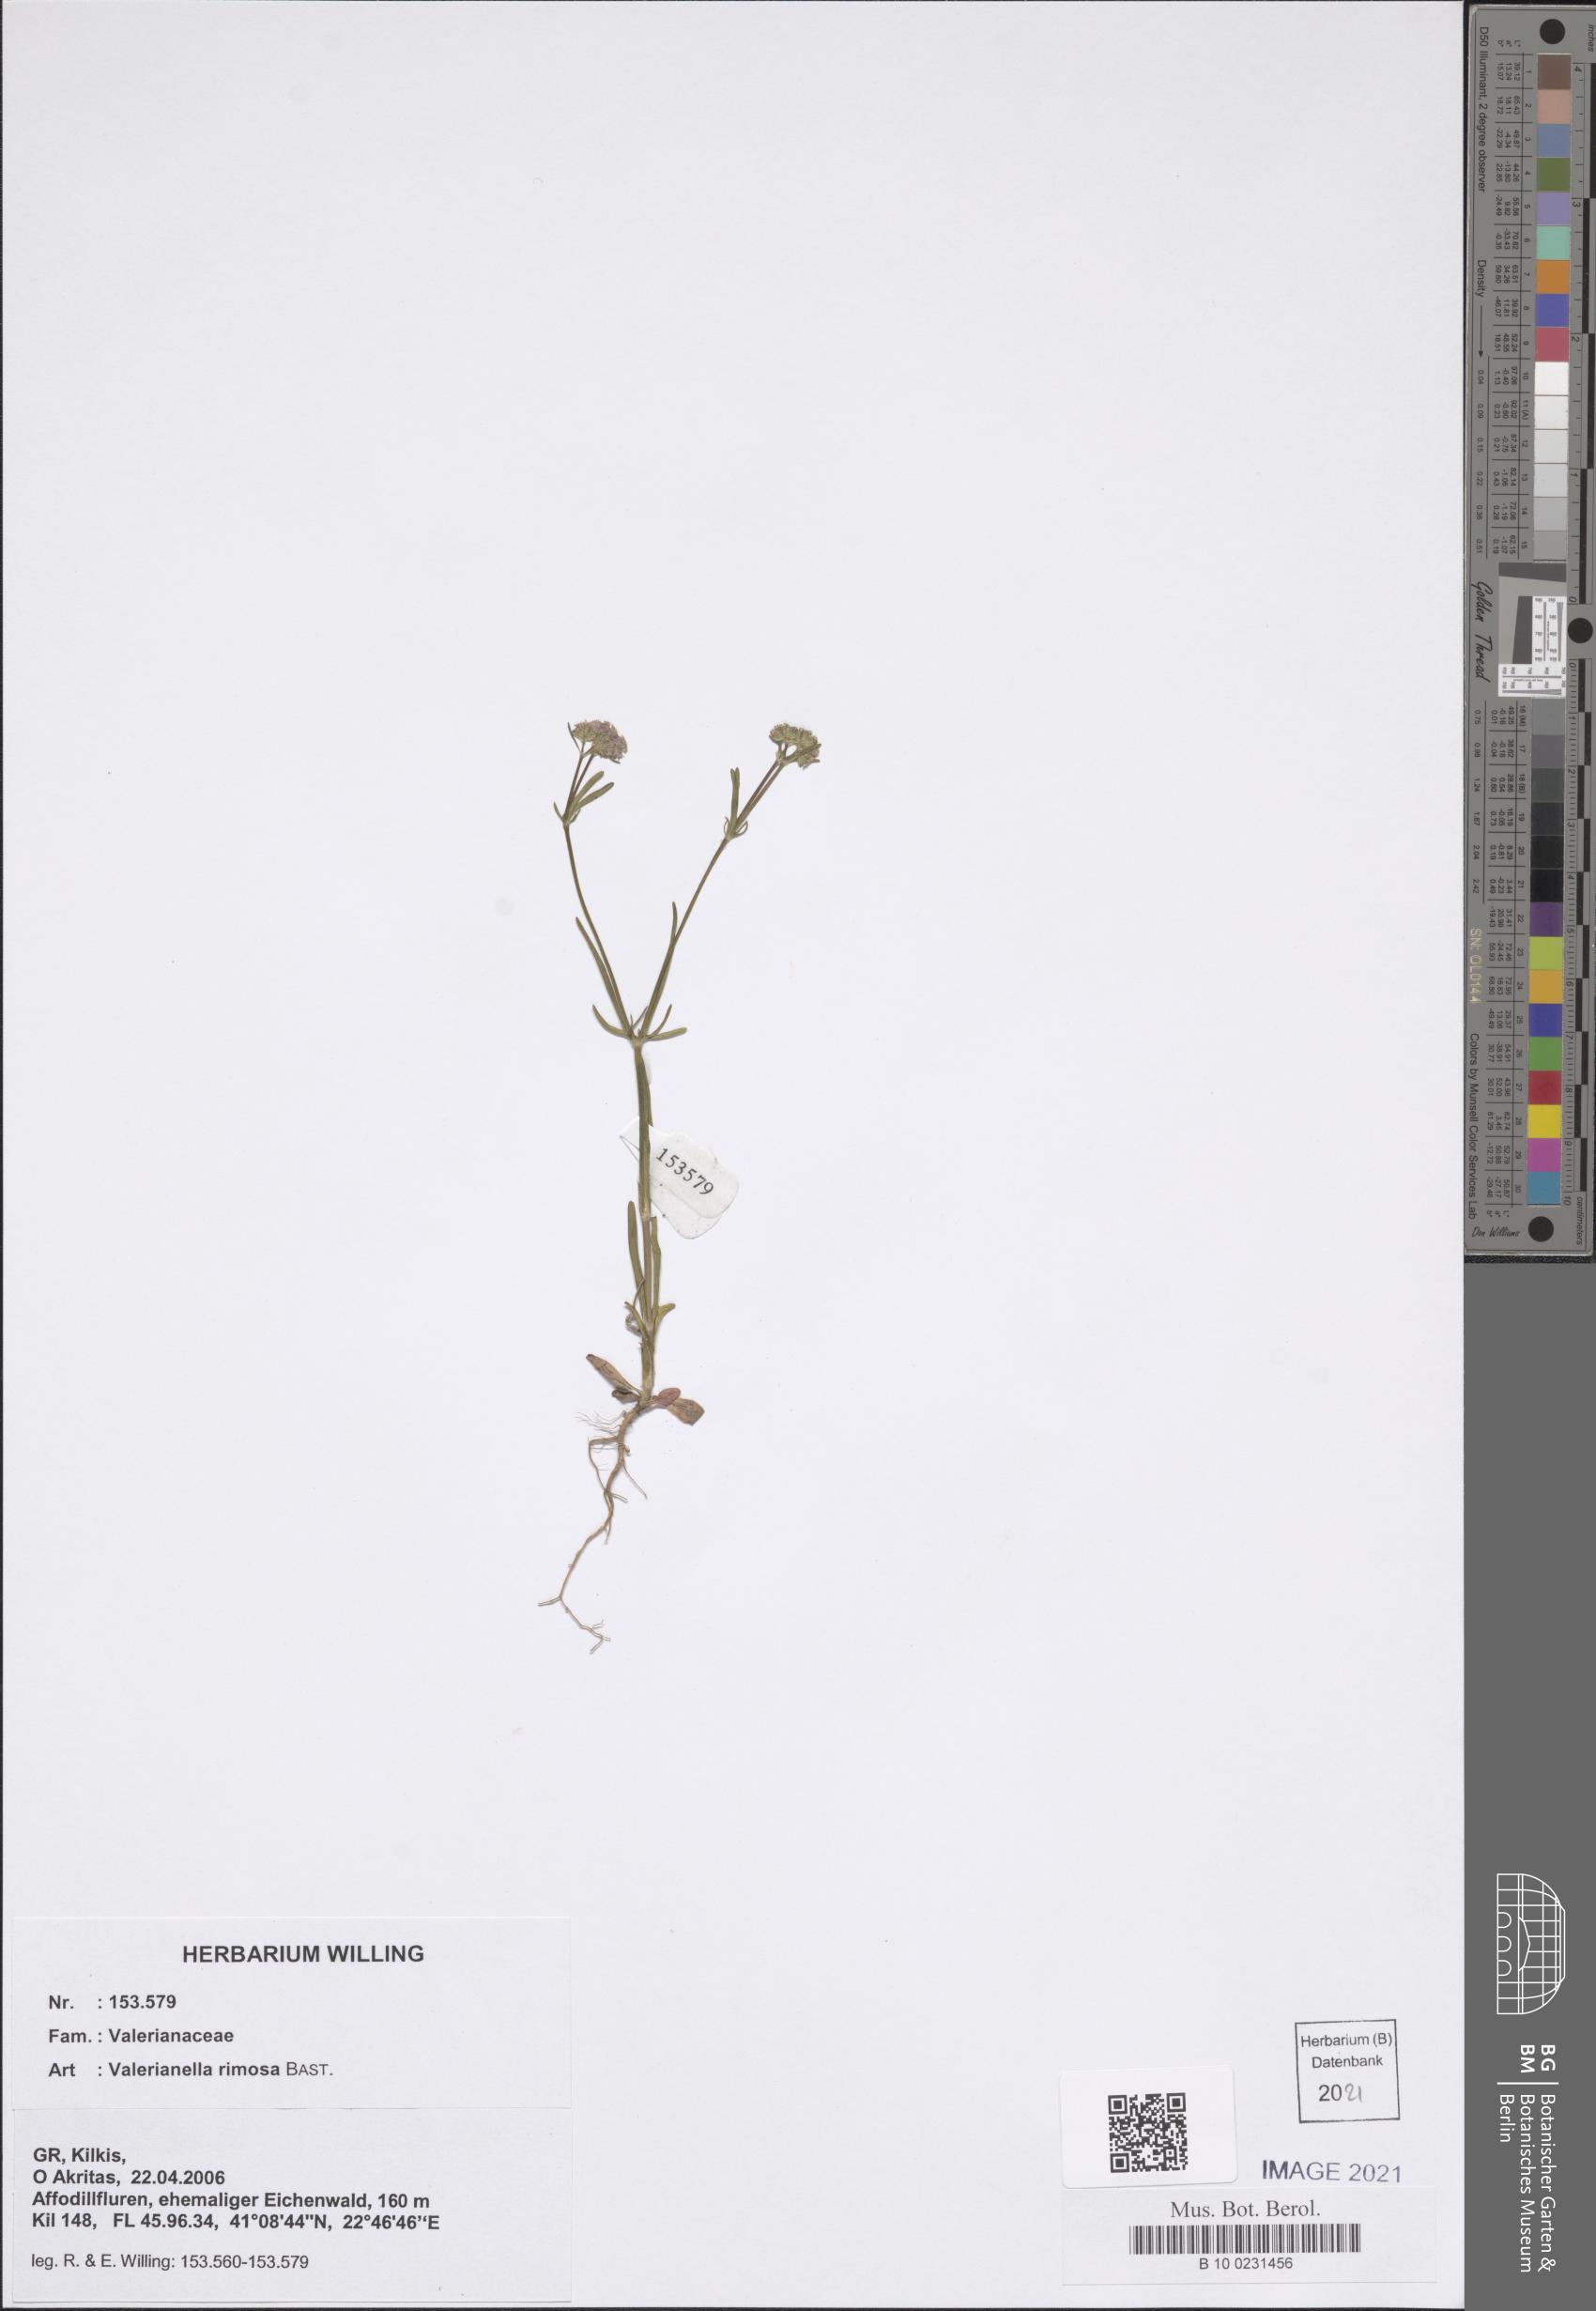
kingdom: Plantae
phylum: Tracheophyta
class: Magnoliopsida
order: Dipsacales
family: Caprifoliaceae
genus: Valerianella
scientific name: Valerianella rimosa
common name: Broad-fruited cornsalad
